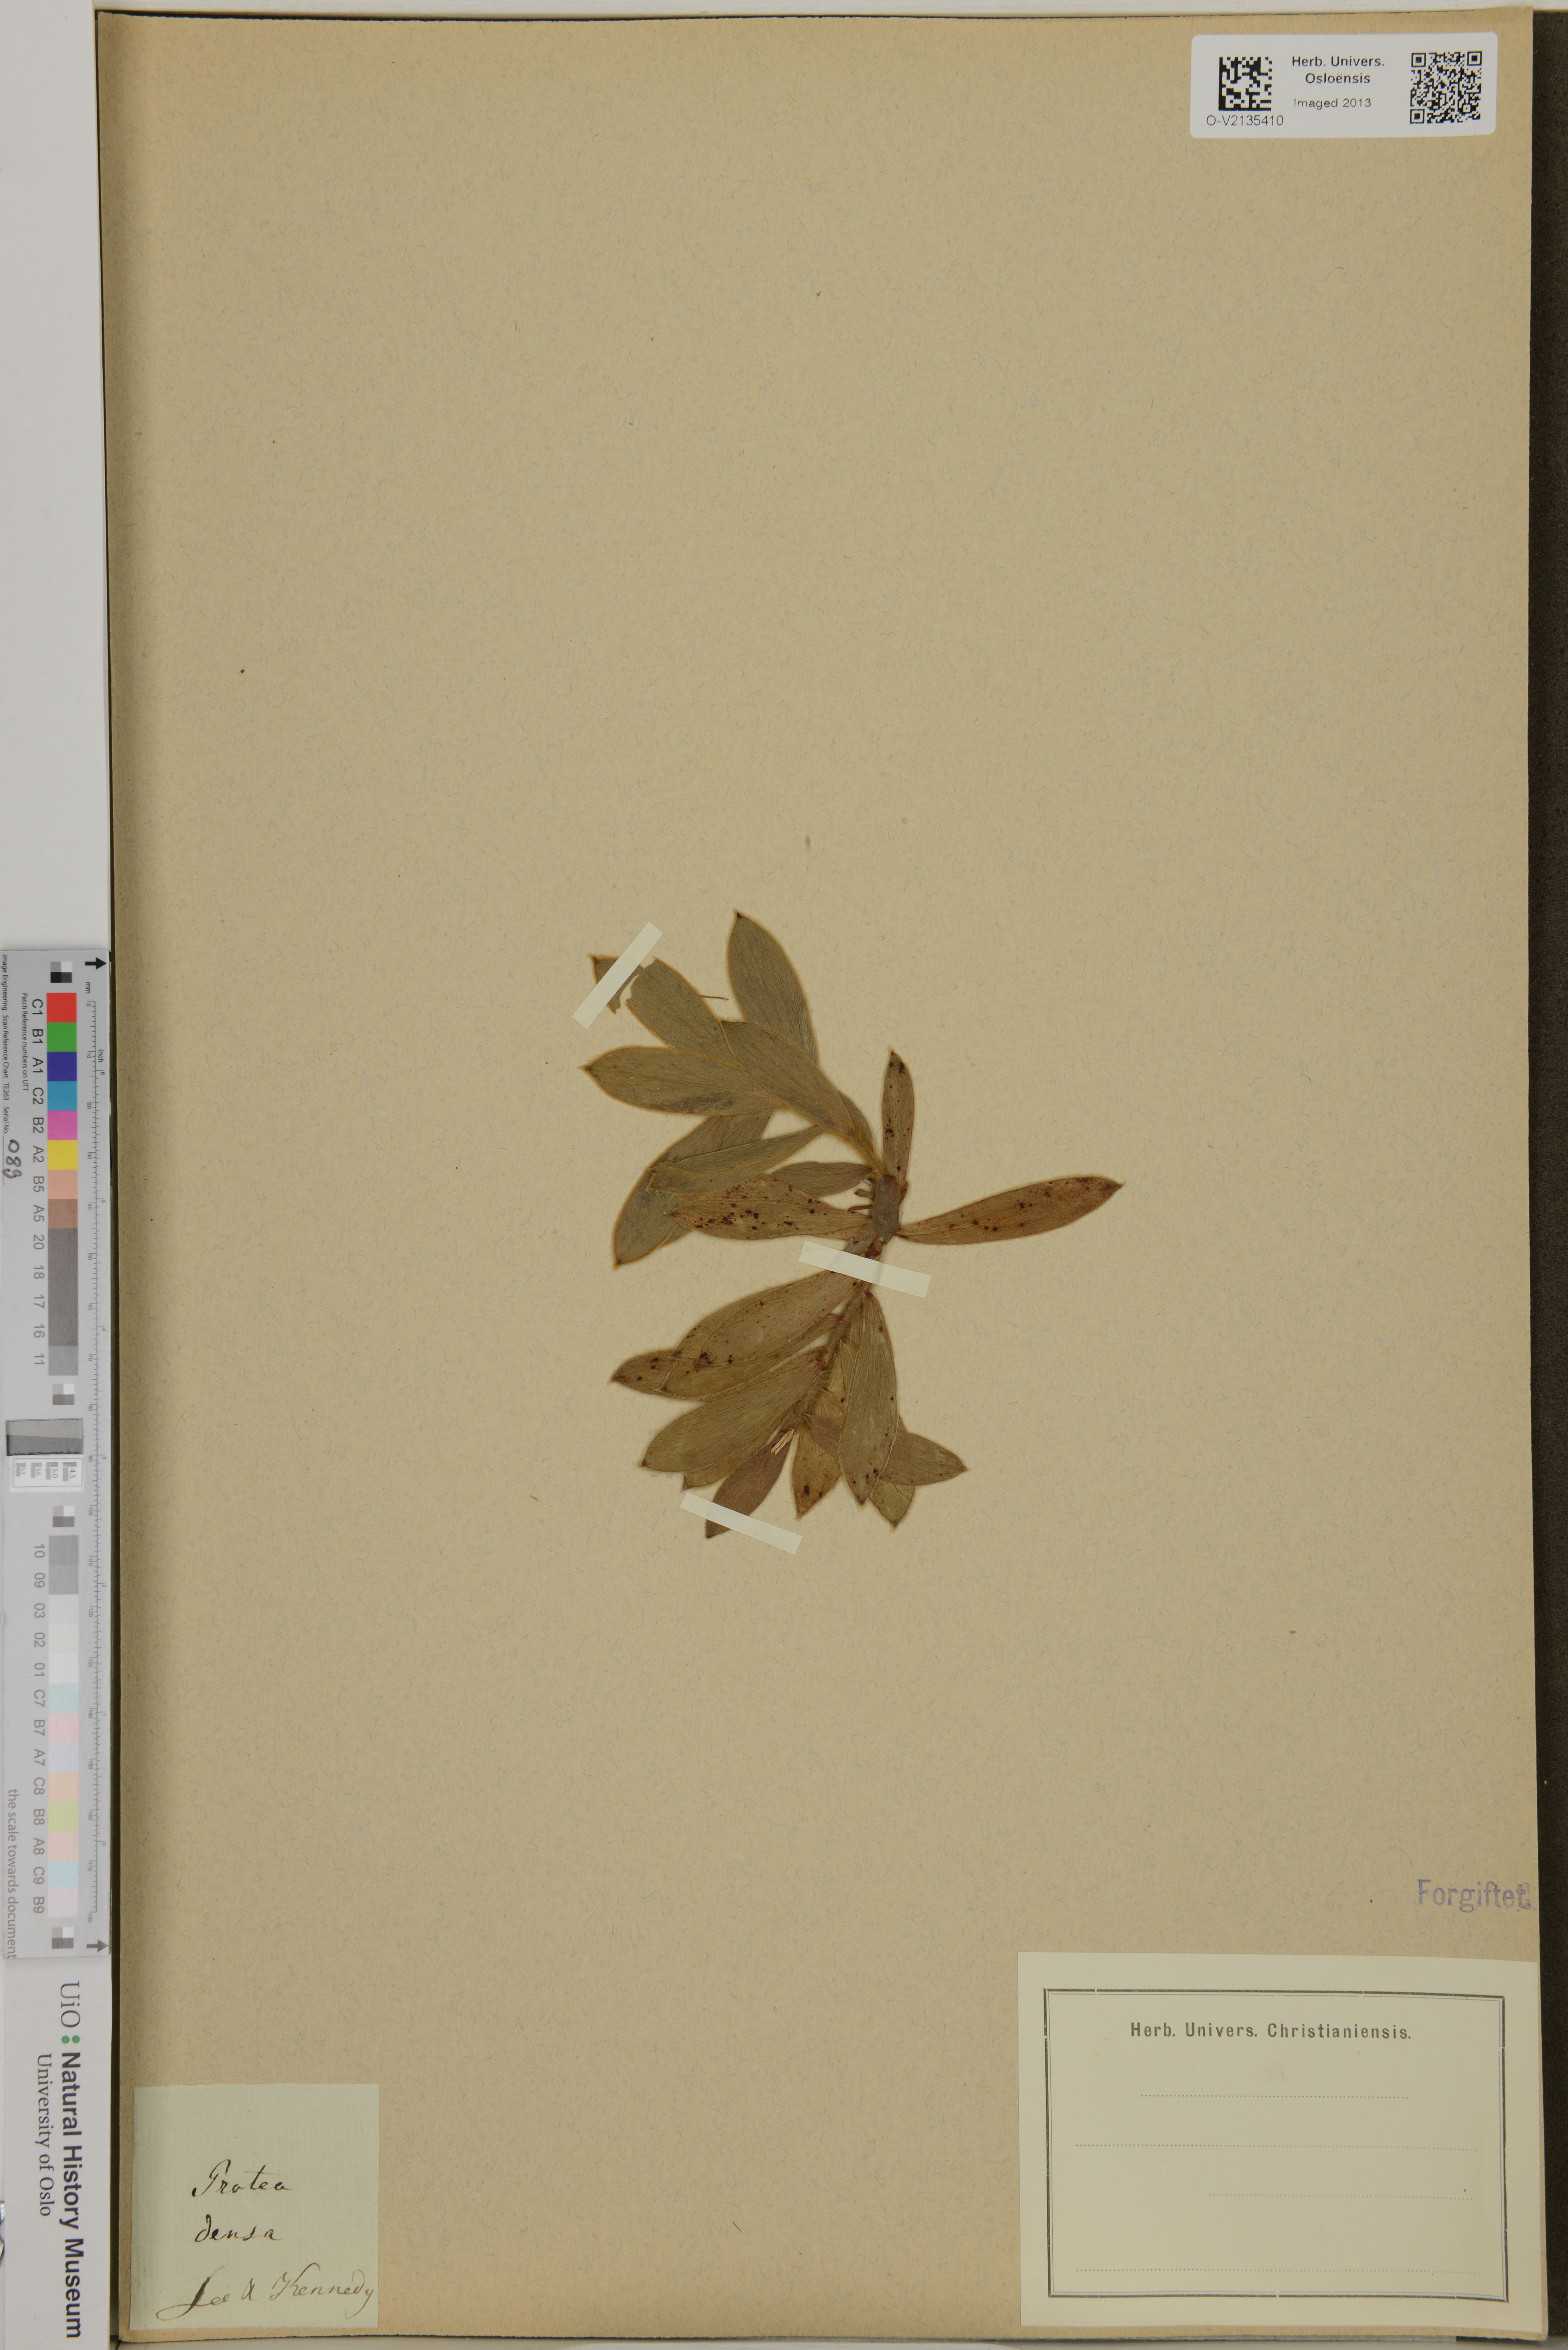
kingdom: Plantae
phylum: Tracheophyta
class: Magnoliopsida
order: Proteales
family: Proteaceae
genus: Leucadendron
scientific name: Leucadendron linifolium
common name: Line-leaf conebush
